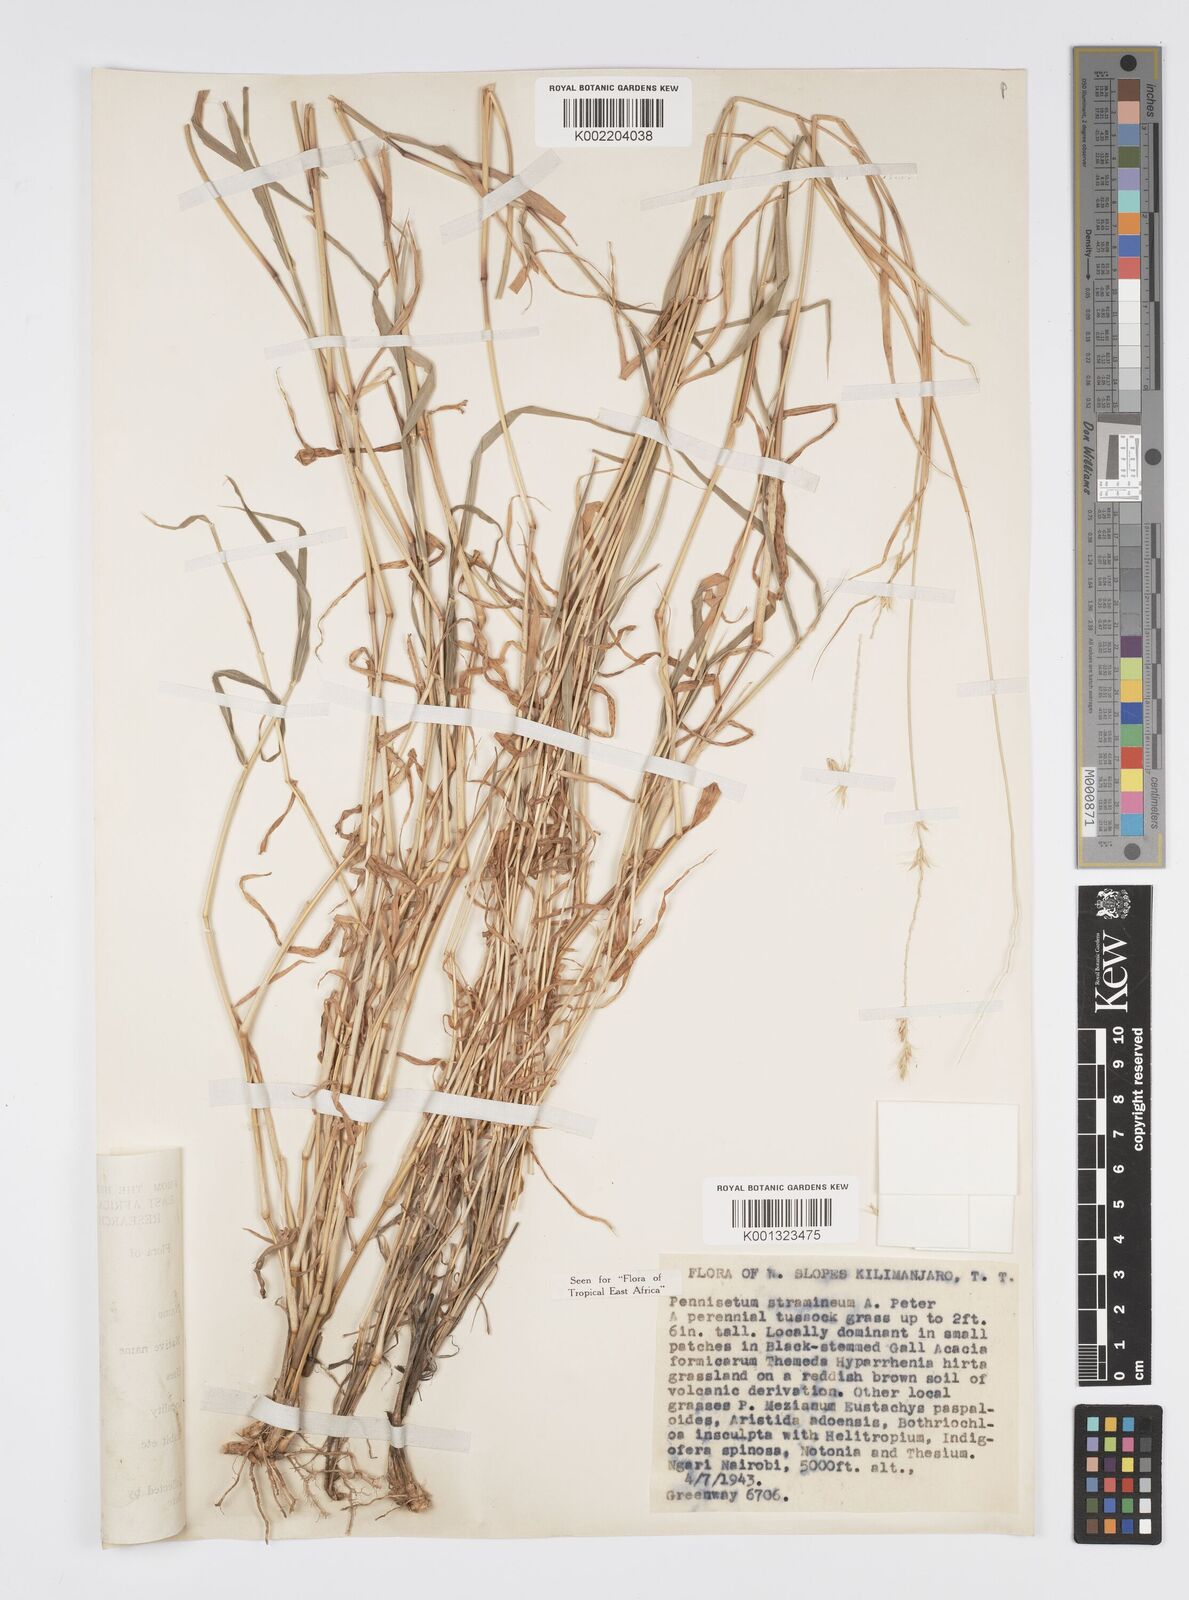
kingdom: Plantae
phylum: Tracheophyta
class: Liliopsida
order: Poales
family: Poaceae
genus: Cenchrus
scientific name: Cenchrus stramineus
